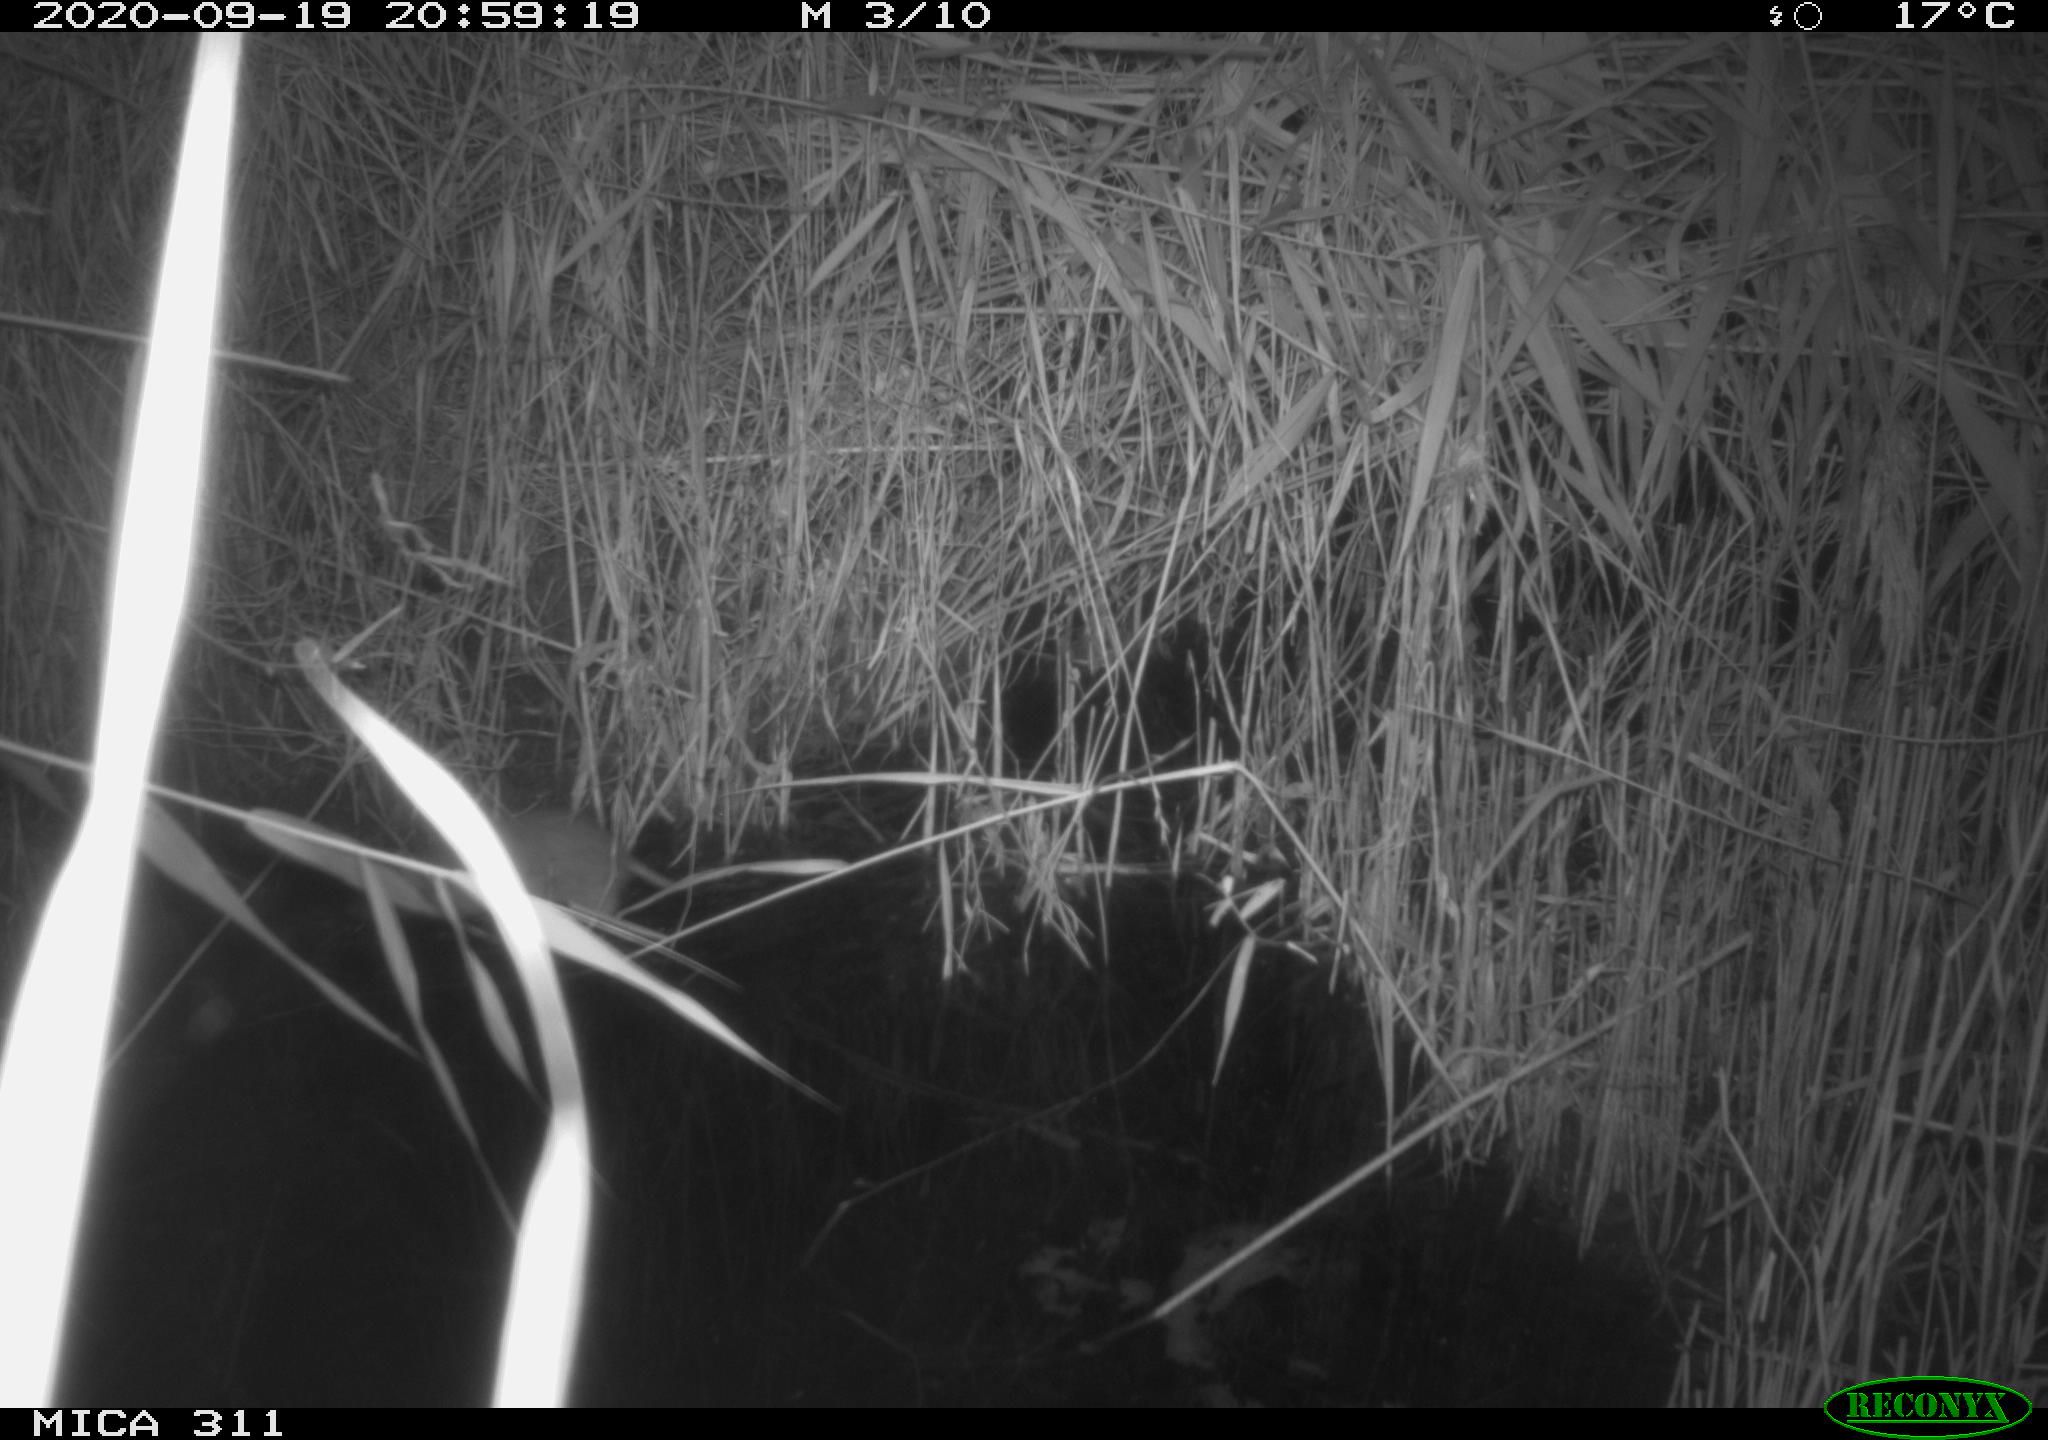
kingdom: Animalia
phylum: Chordata
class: Mammalia
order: Rodentia
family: Muridae
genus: Rattus
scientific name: Rattus norvegicus
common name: Brown rat
